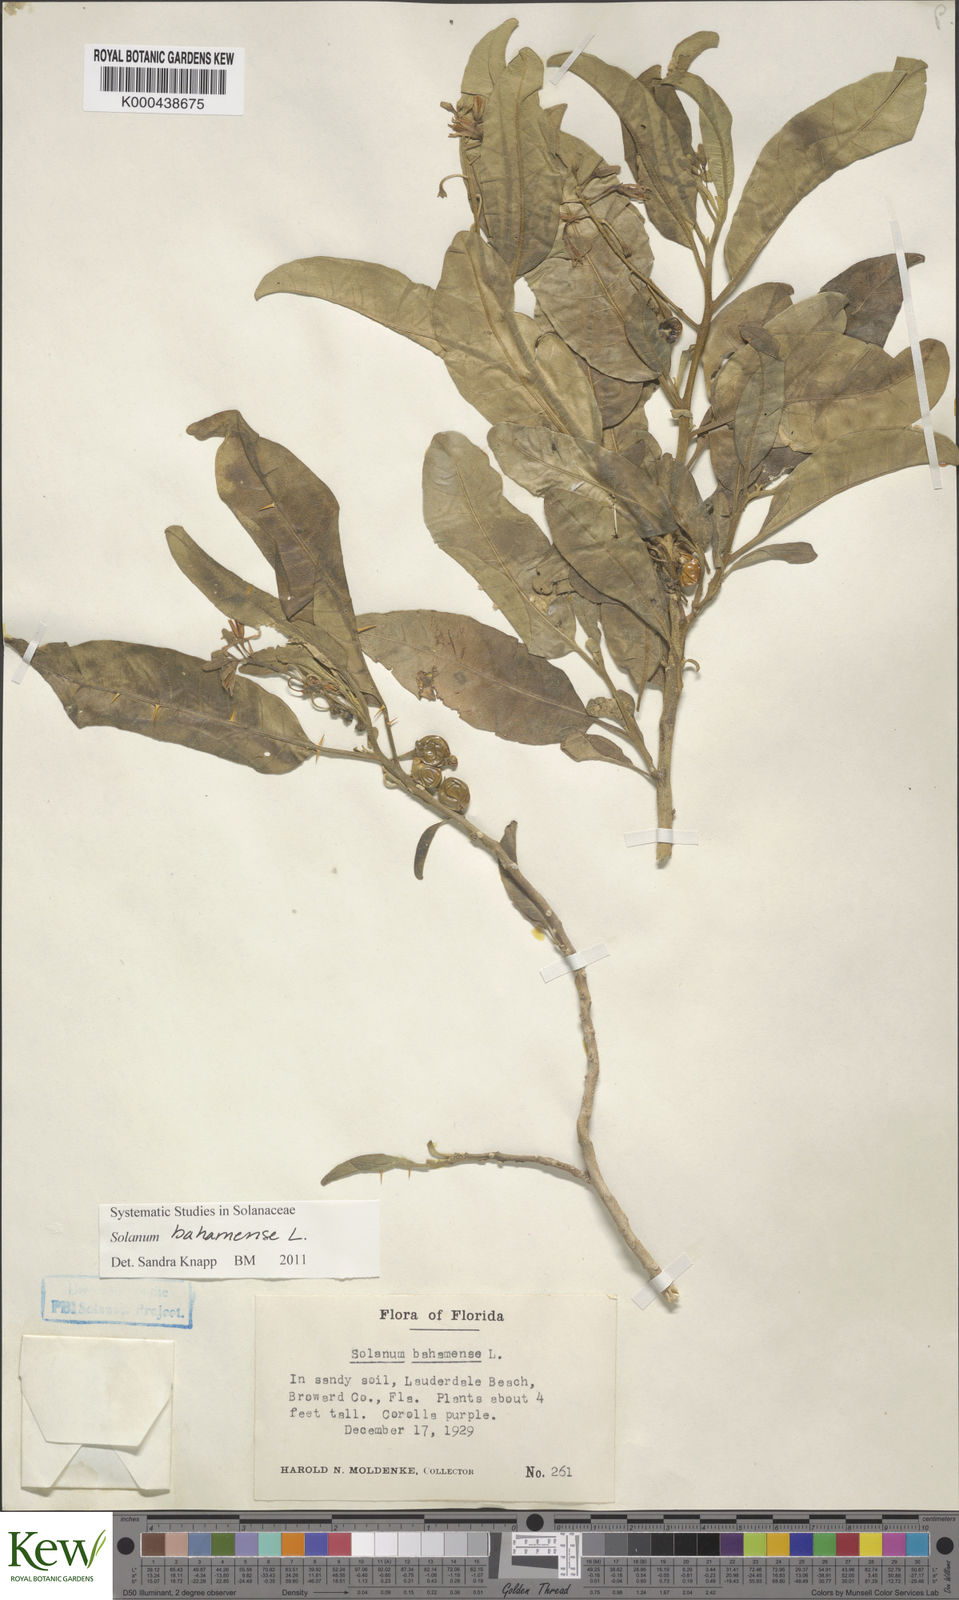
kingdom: Plantae
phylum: Tracheophyta
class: Magnoliopsida
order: Solanales
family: Solanaceae
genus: Solanum
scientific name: Solanum bahamense
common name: Canker-berry
